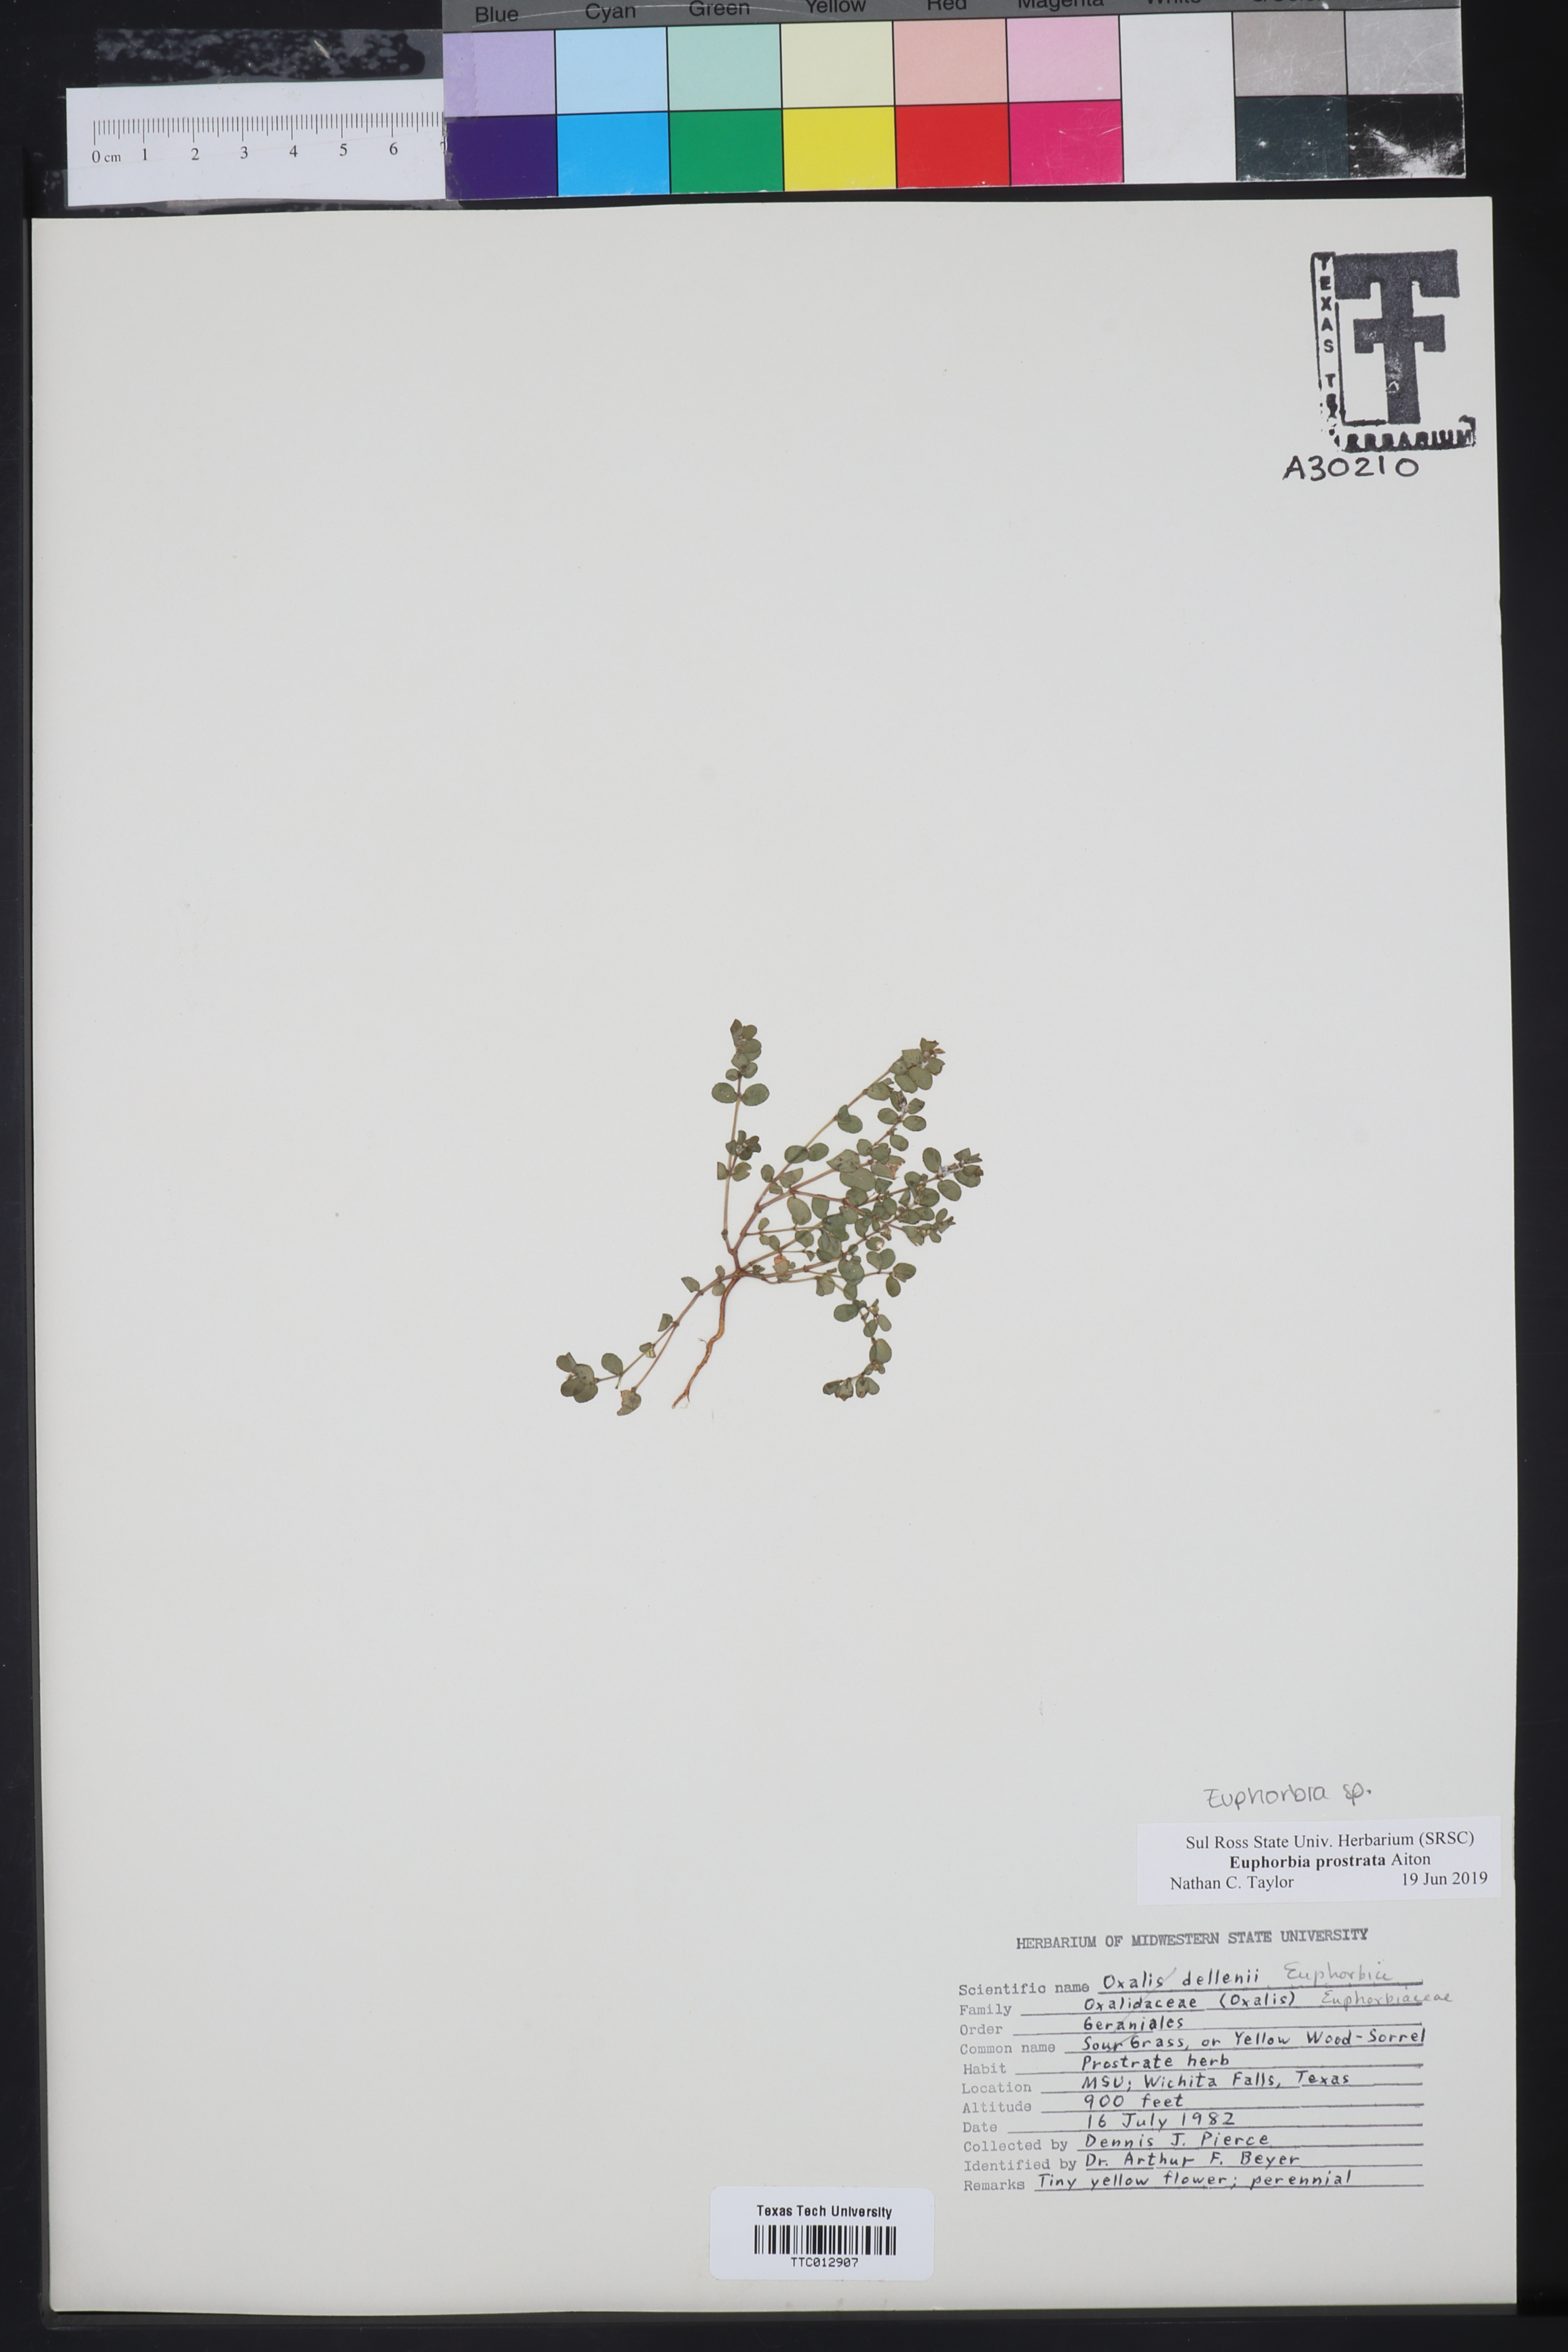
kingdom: Plantae
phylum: Tracheophyta
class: Magnoliopsida
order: Malpighiales
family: Euphorbiaceae
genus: Euphorbia
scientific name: Euphorbia prostrata
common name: Prostrate sandmat
